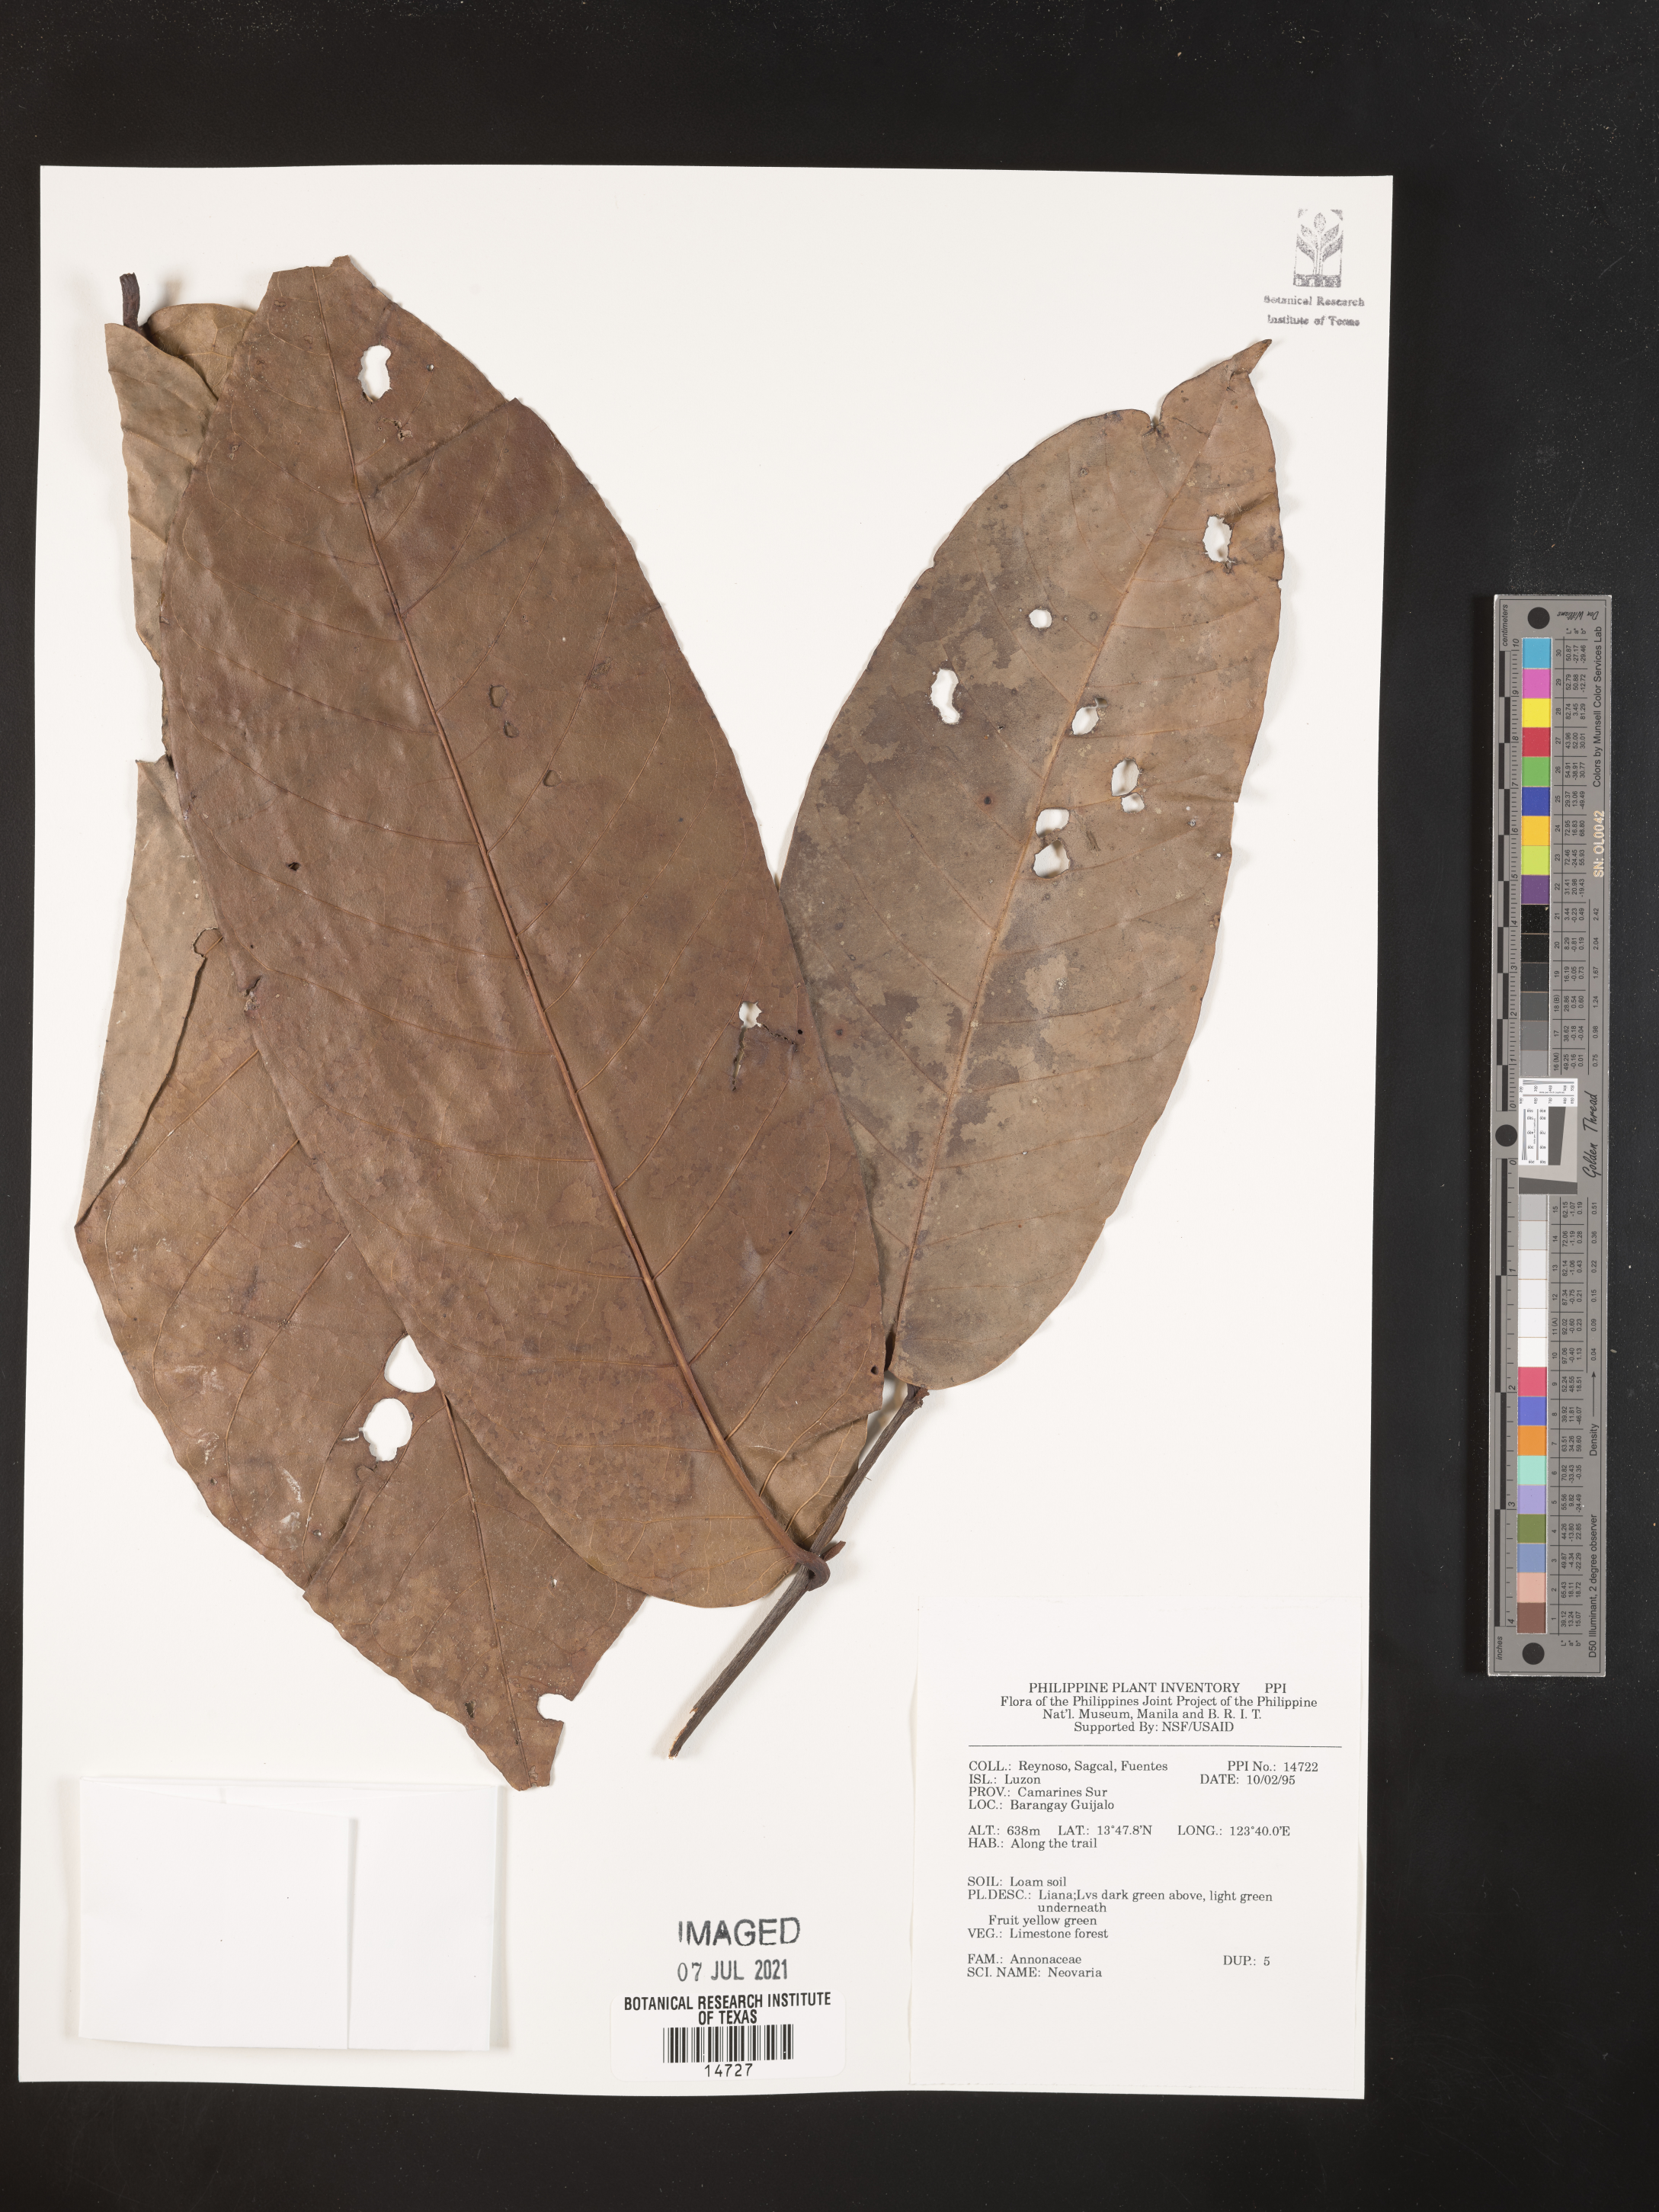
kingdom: Plantae
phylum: Tracheophyta
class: Magnoliopsida
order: Magnoliales
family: Annonaceae
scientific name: Annonaceae
